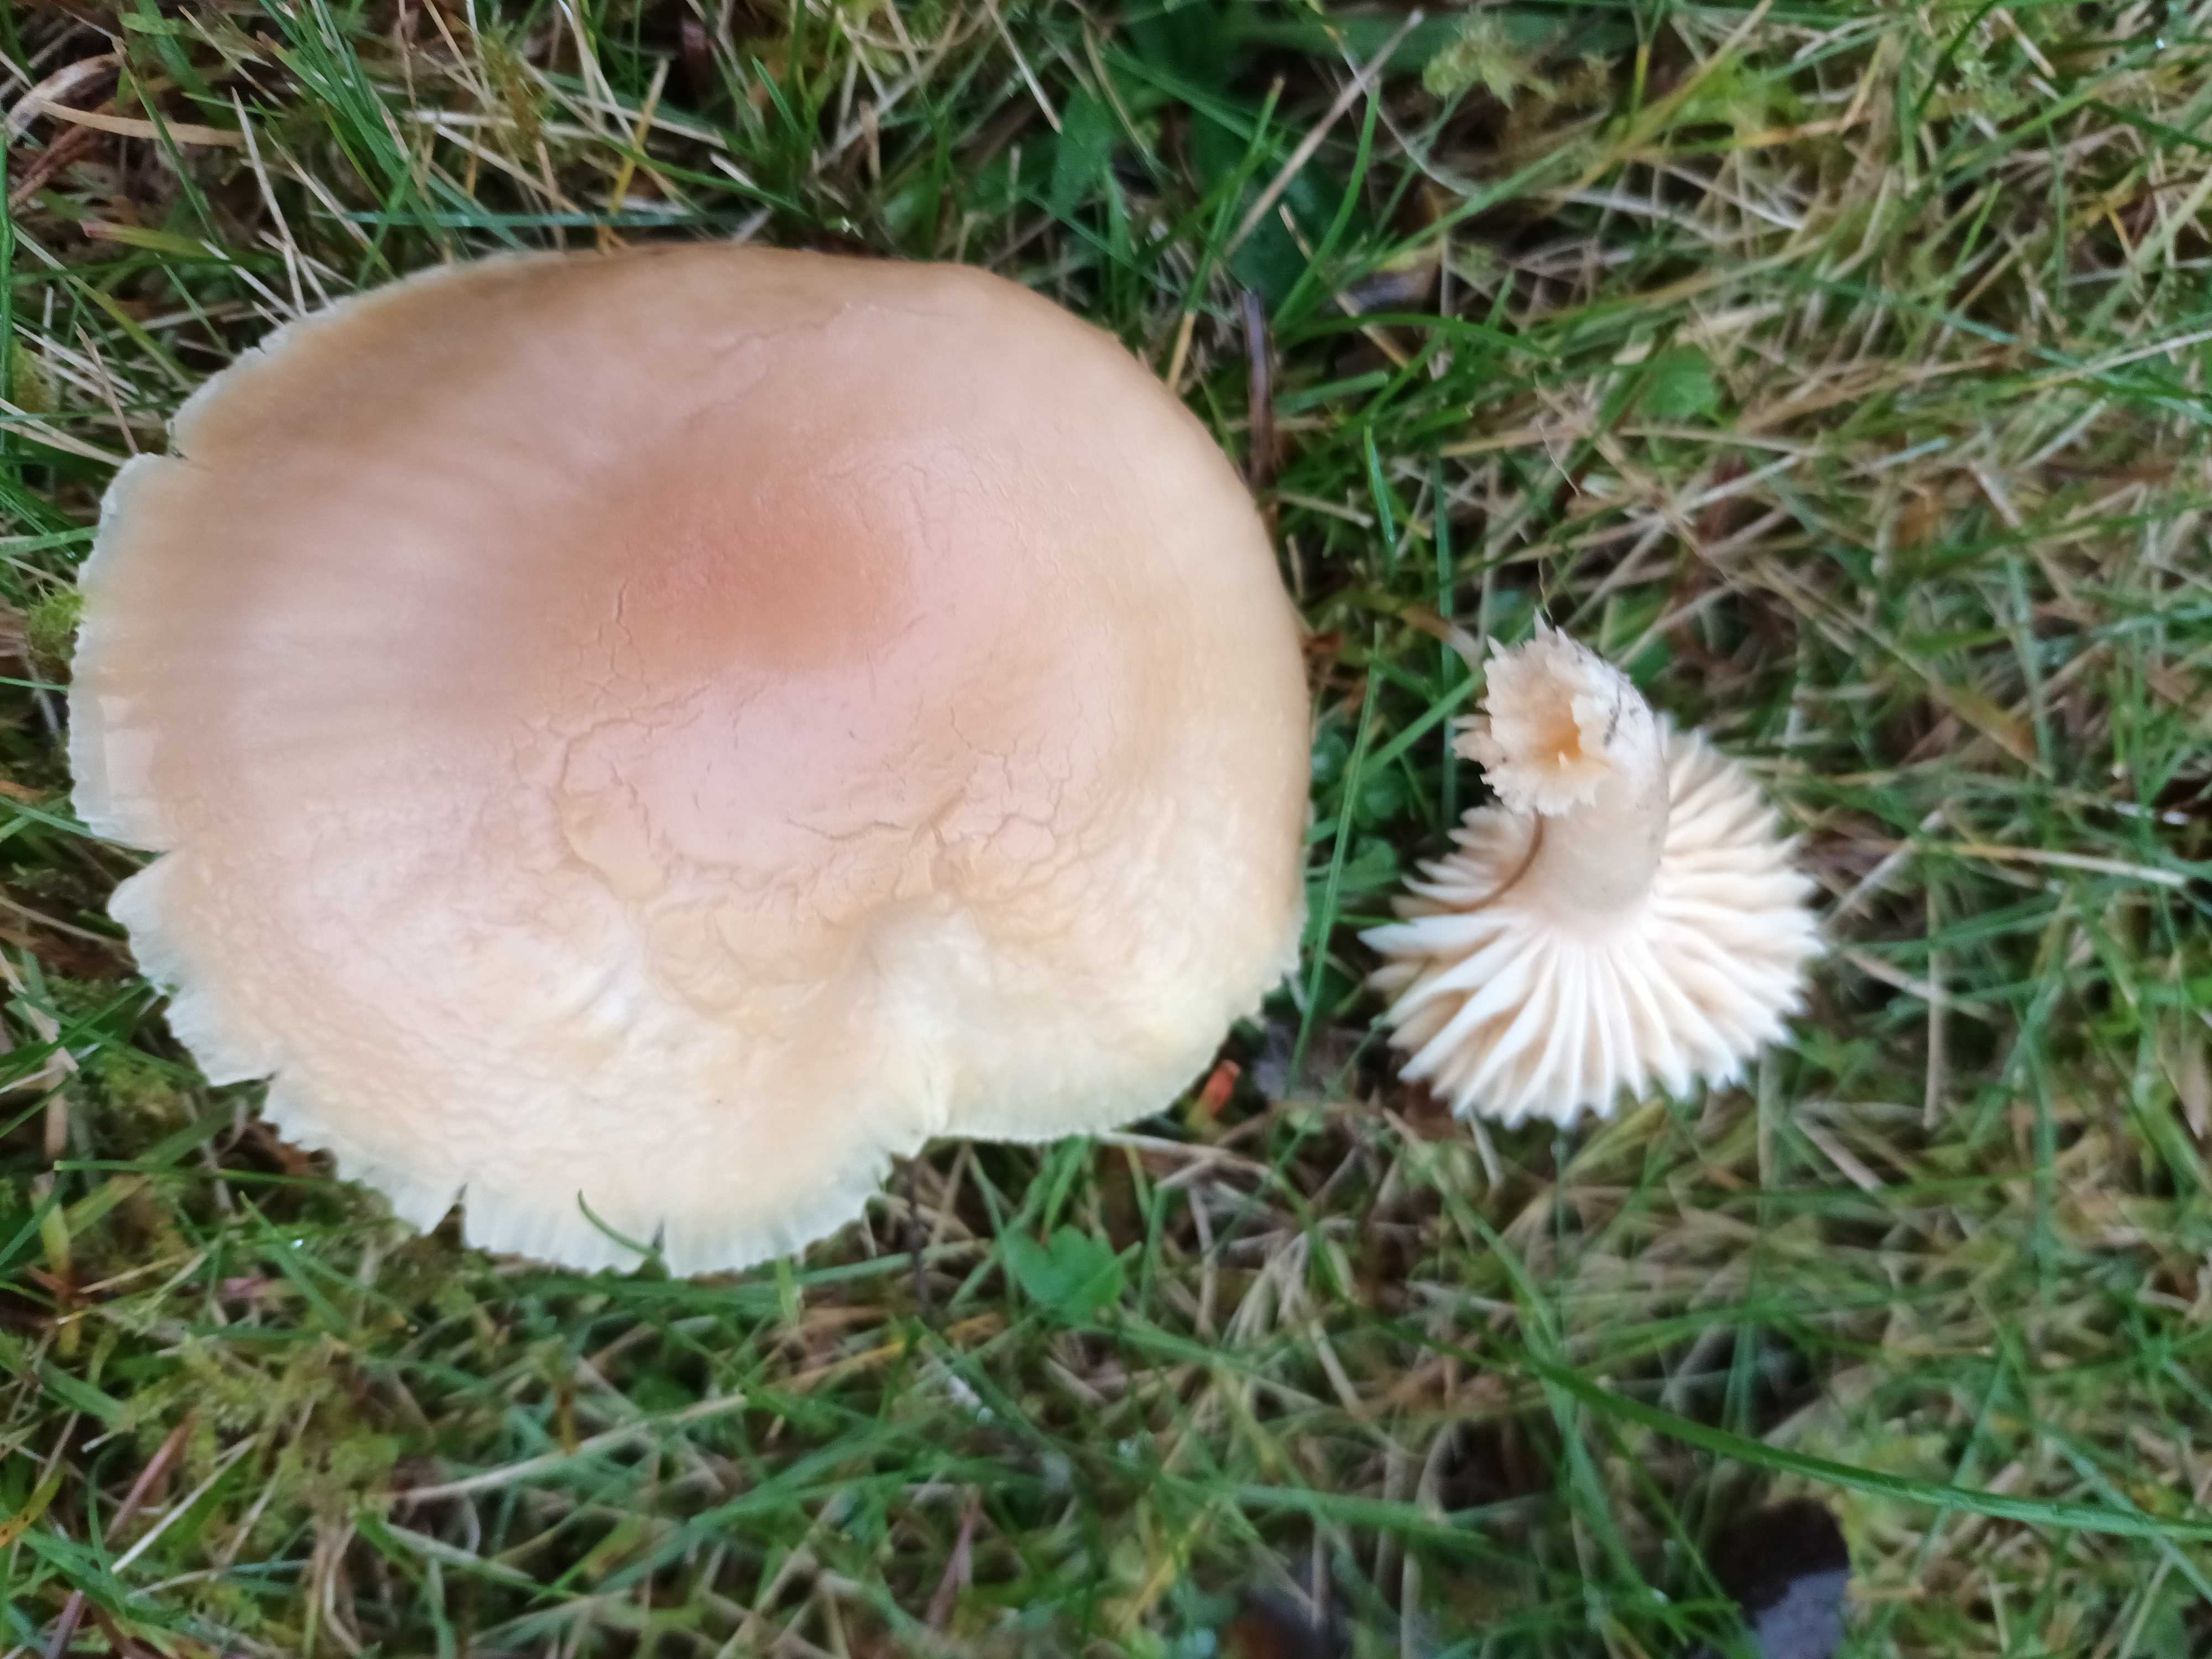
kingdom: Fungi
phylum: Basidiomycota
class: Agaricomycetes
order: Agaricales
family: Hygrophoraceae
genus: Cuphophyllus
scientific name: Cuphophyllus pratensis
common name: eng-vokshat
